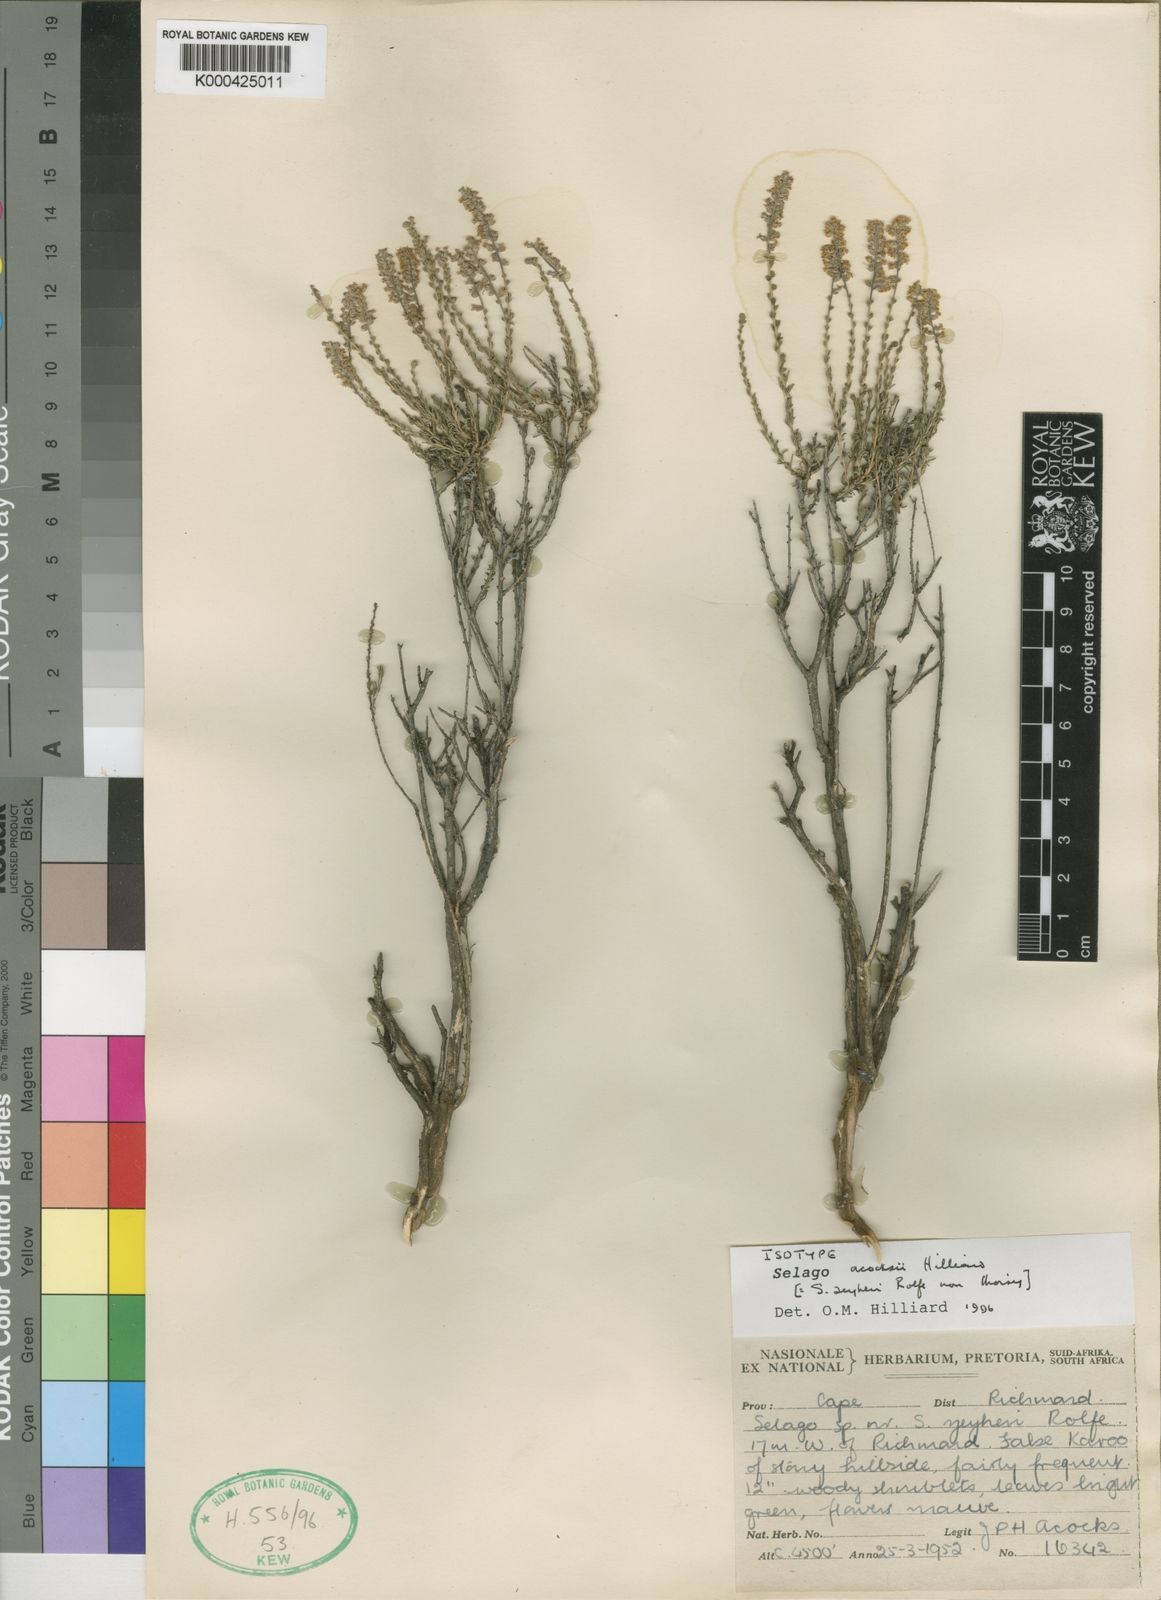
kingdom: Plantae
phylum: Tracheophyta
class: Magnoliopsida
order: Lamiales
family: Scrophulariaceae
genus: Selago
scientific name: Selago acocksii
